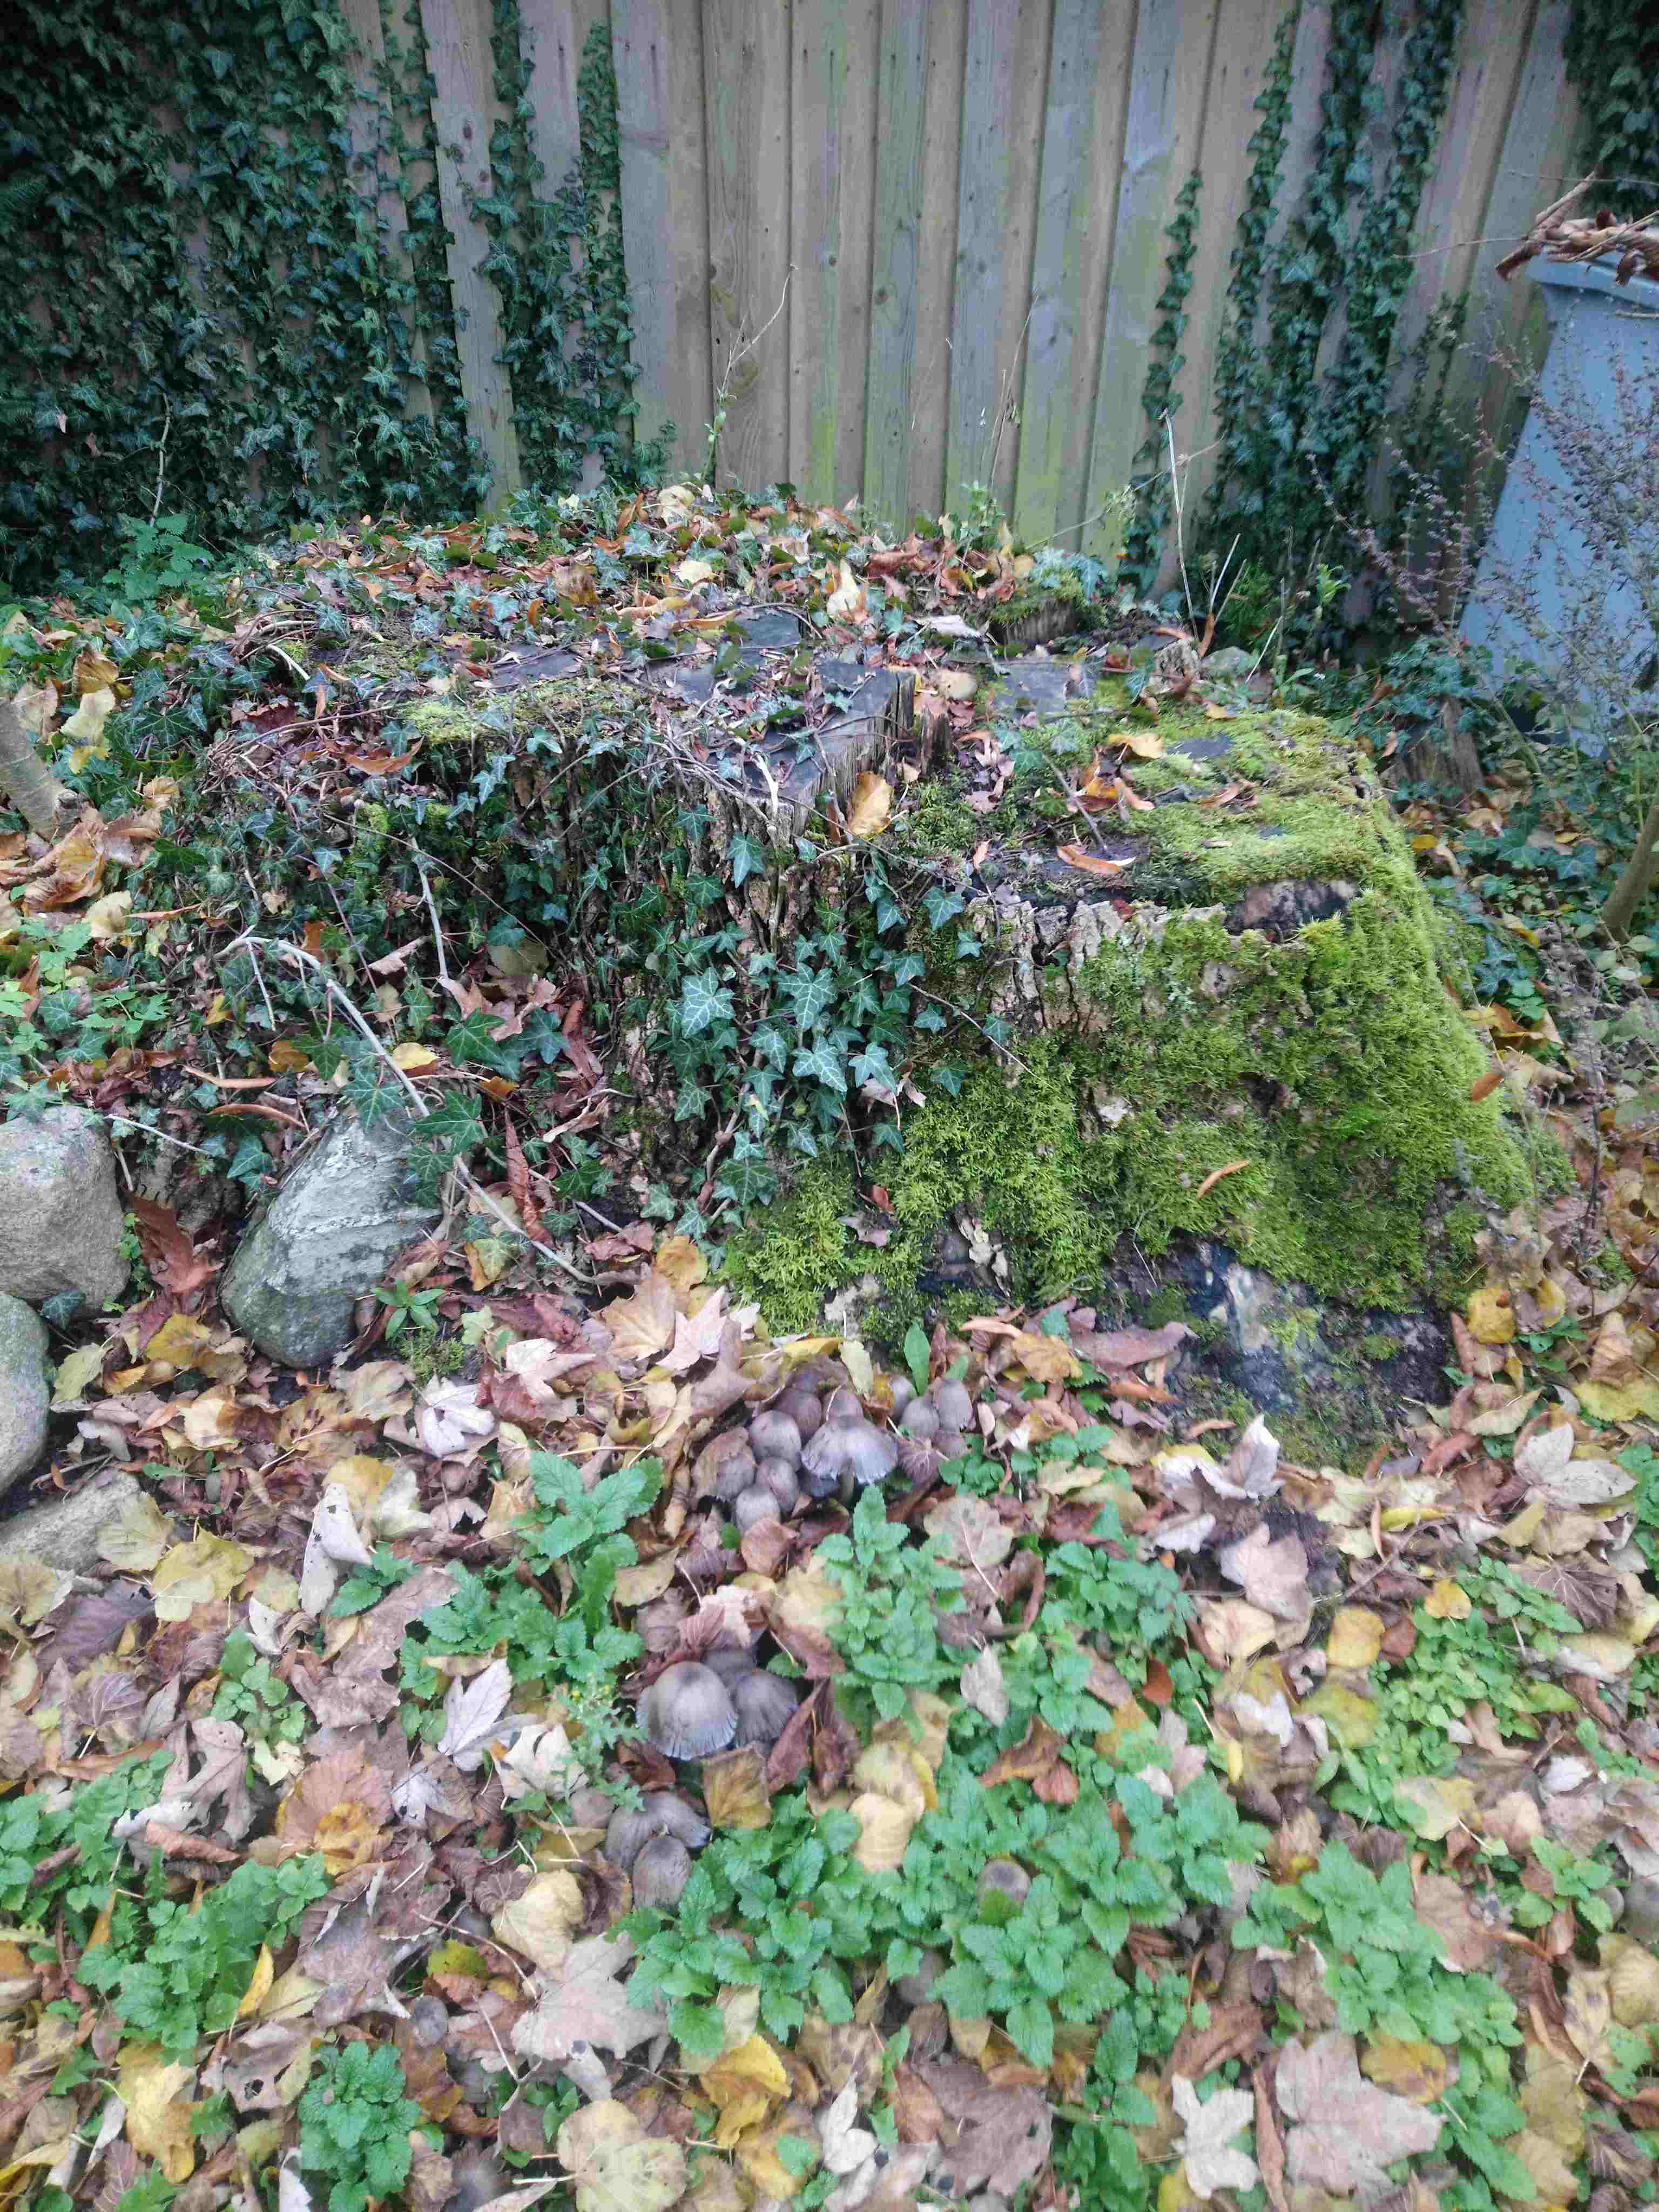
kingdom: Fungi
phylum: Basidiomycota
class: Agaricomycetes
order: Agaricales
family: Psathyrellaceae
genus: Coprinopsis
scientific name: Coprinopsis atramentaria
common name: almindelig blækhat
